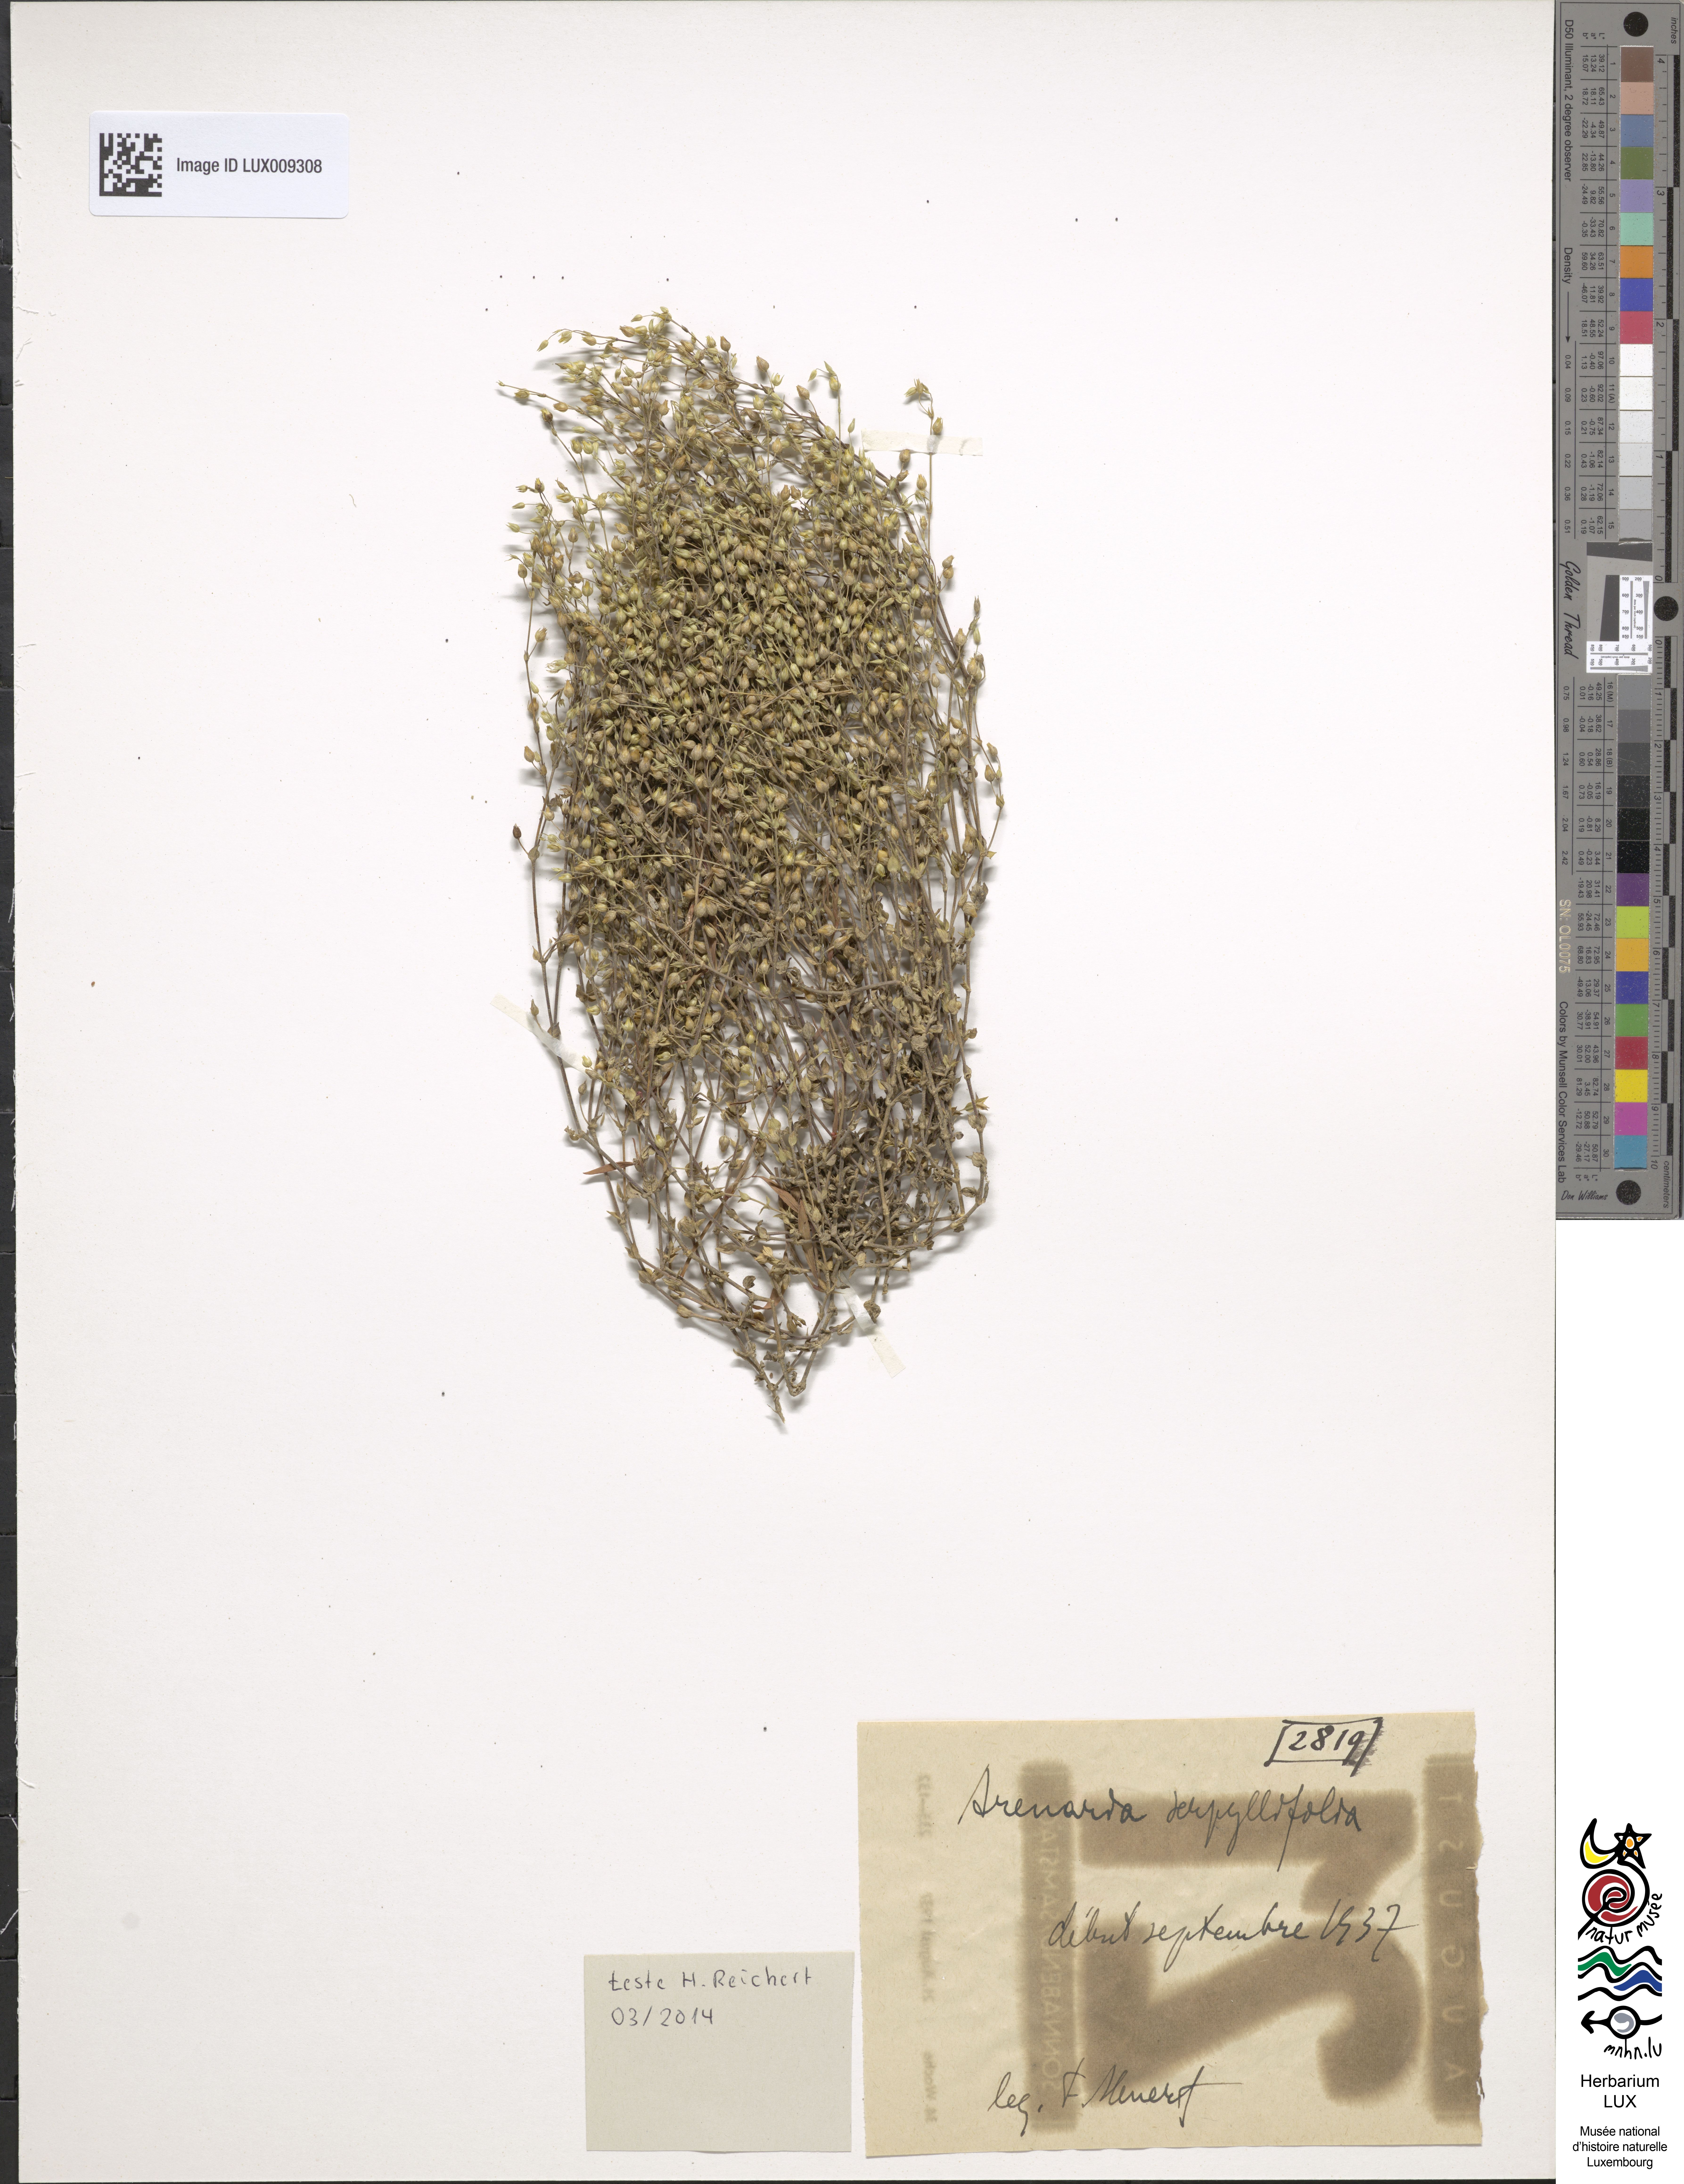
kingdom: Plantae
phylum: Tracheophyta
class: Magnoliopsida
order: Caryophyllales
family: Caryophyllaceae
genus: Arenaria
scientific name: Arenaria serpyllifolia
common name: Thyme-leaved sandwort
